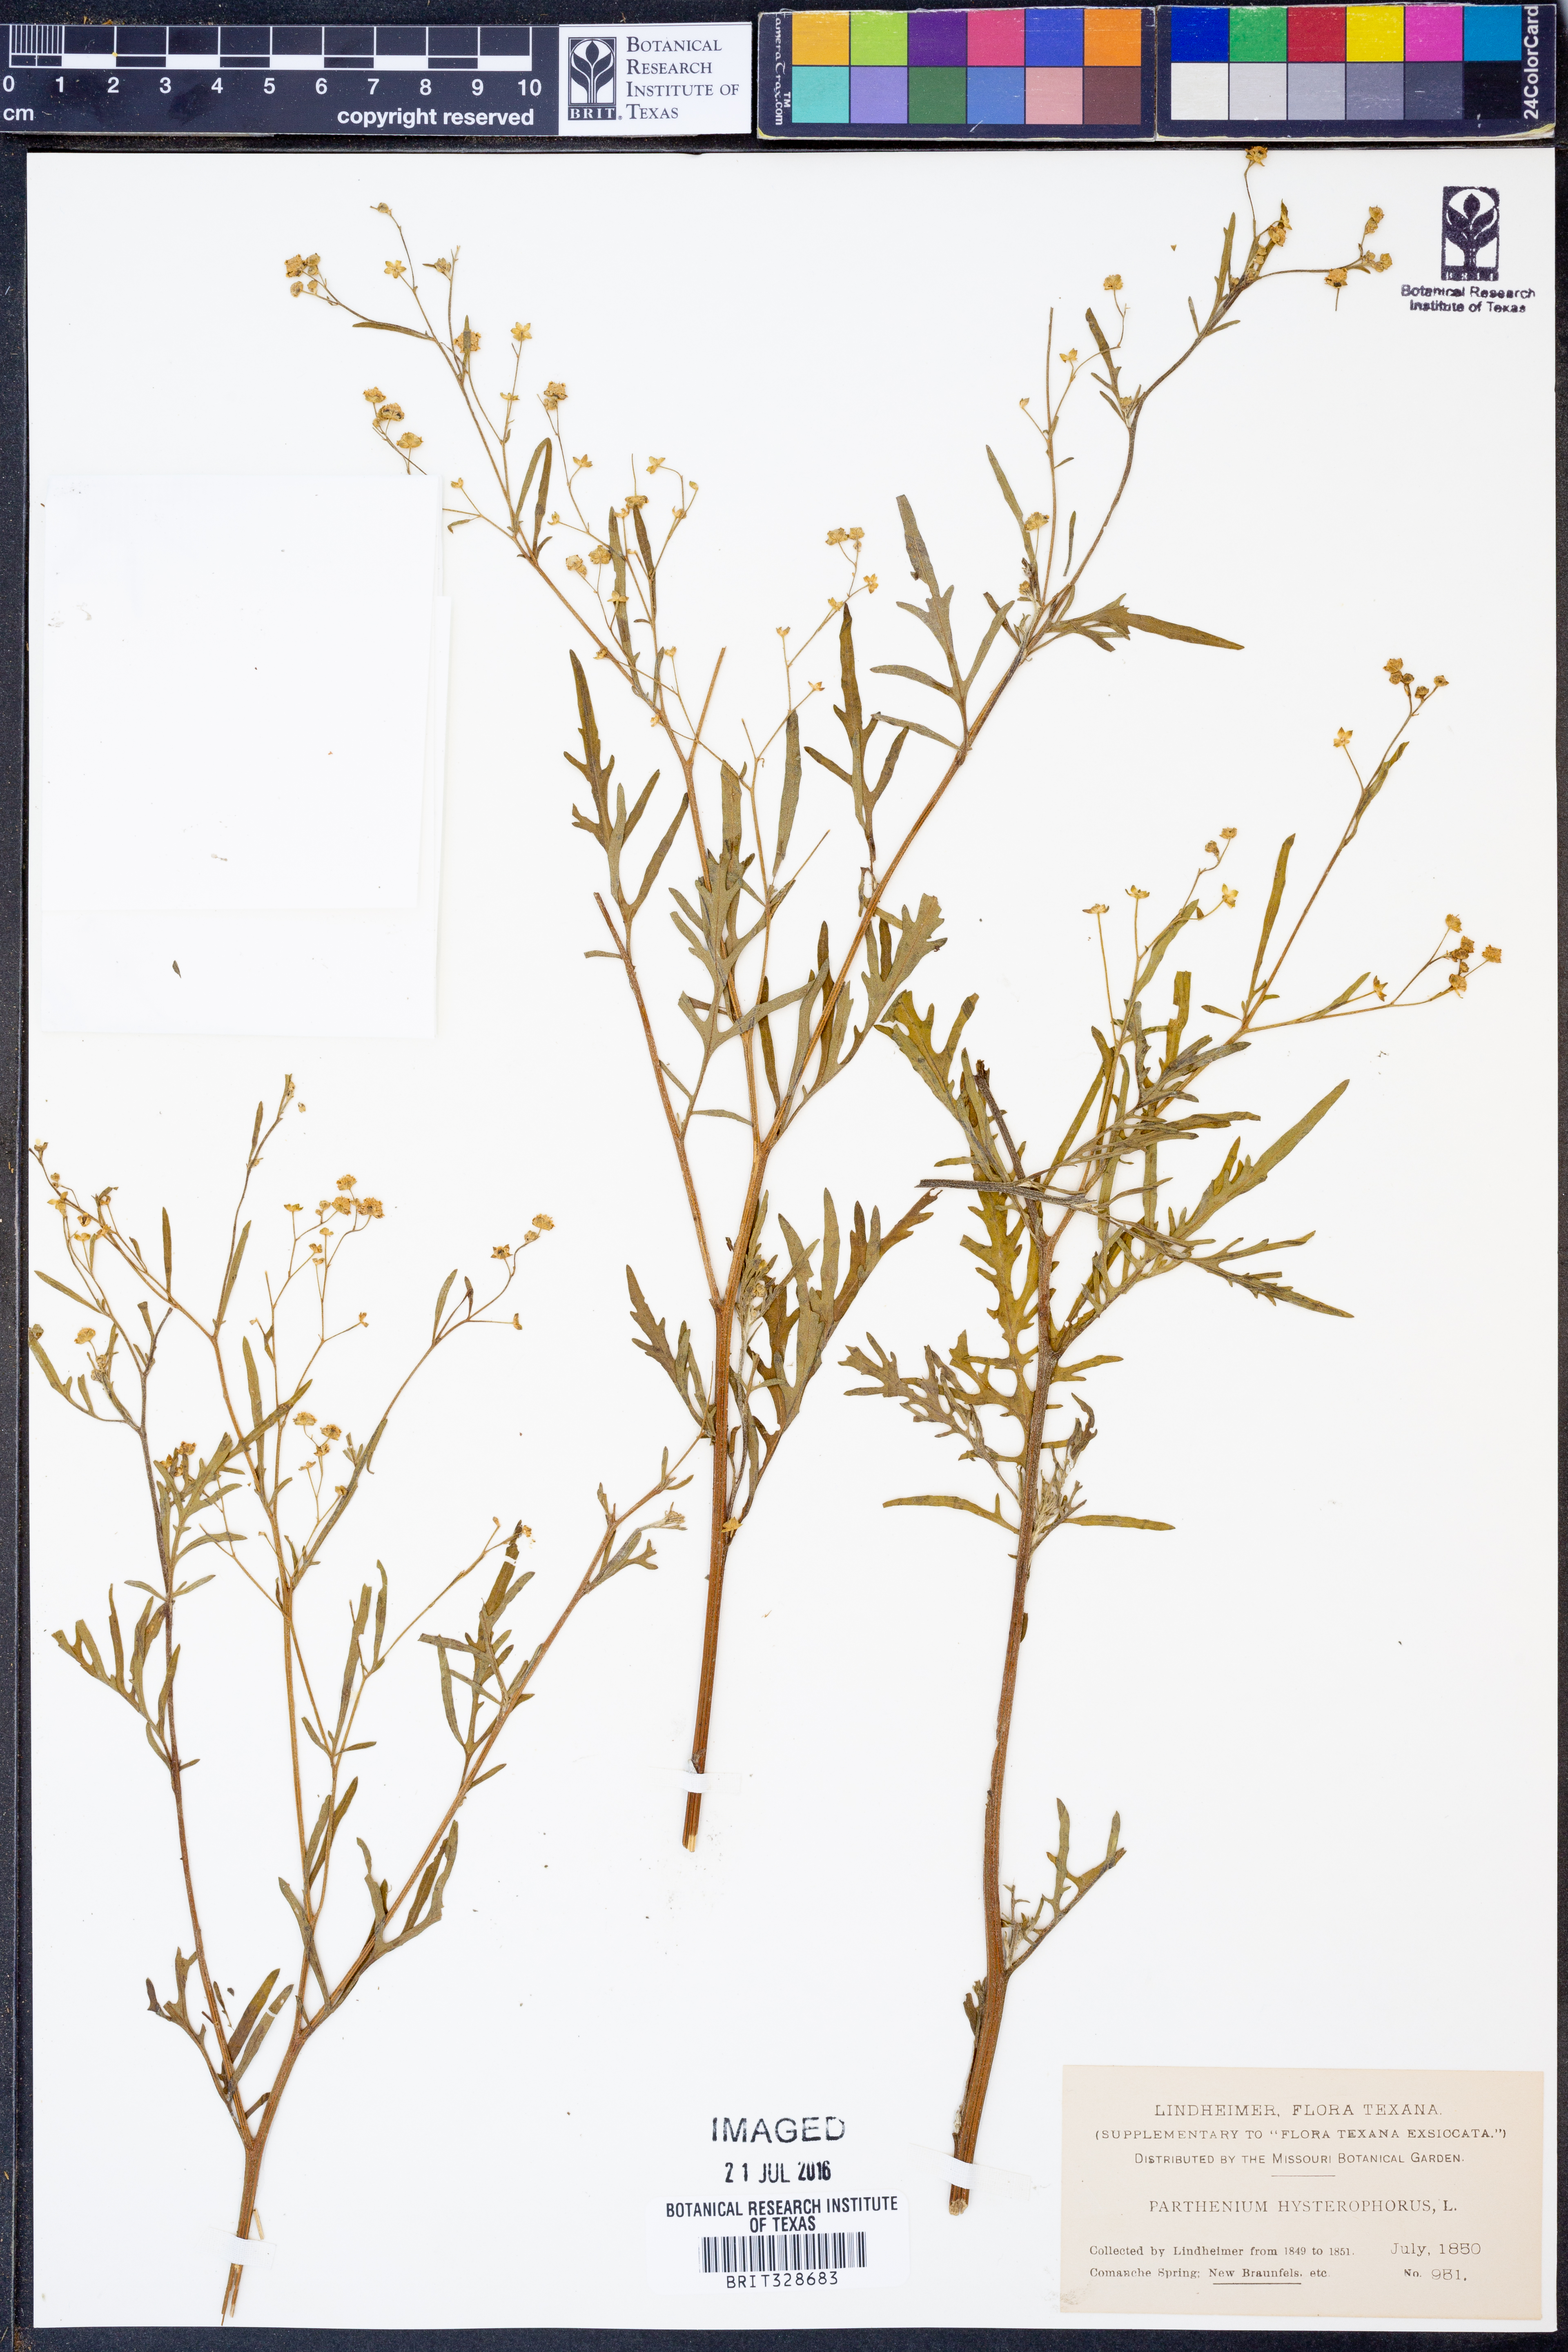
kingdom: Plantae
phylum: Tracheophyta
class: Magnoliopsida
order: Asterales
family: Asteraceae
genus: Parthenium
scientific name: Parthenium hysterophorus
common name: Santa maria feverfew
